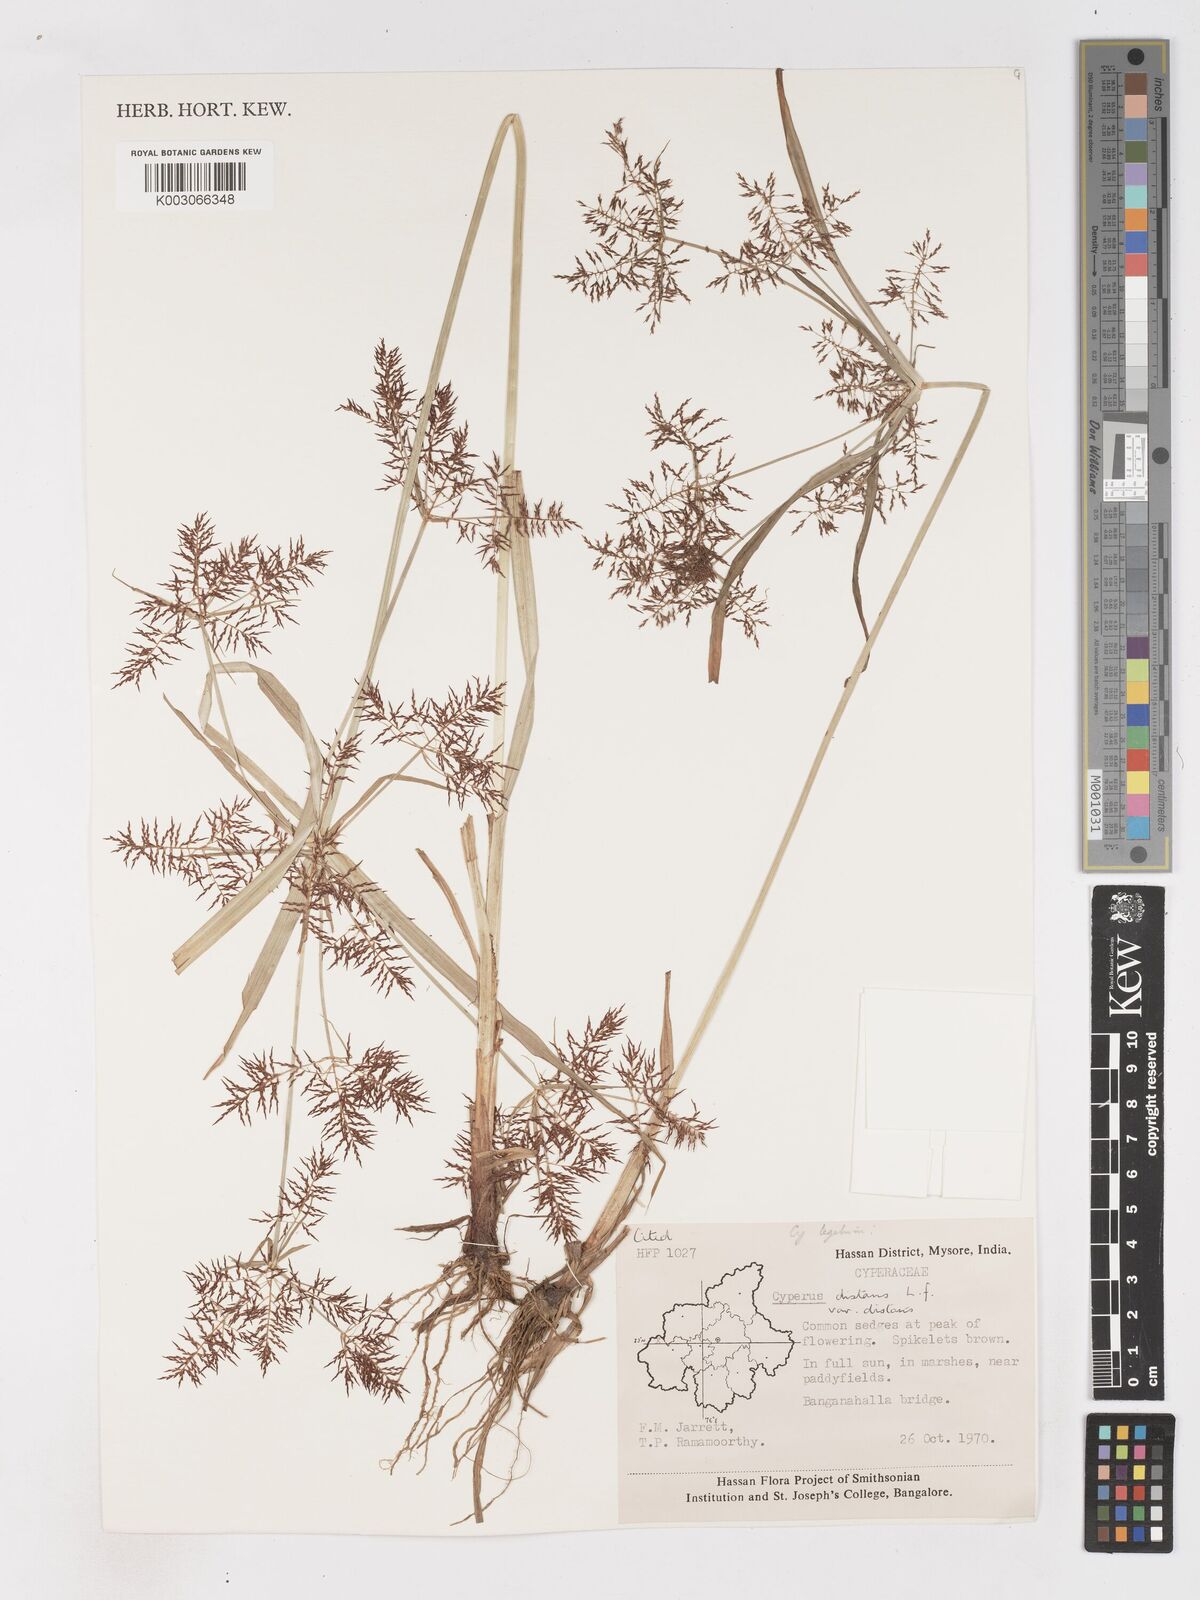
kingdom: Plantae
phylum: Tracheophyta
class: Liliopsida
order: Poales
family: Cyperaceae
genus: Cyperus
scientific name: Cyperus distans
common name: Slender cyperus
